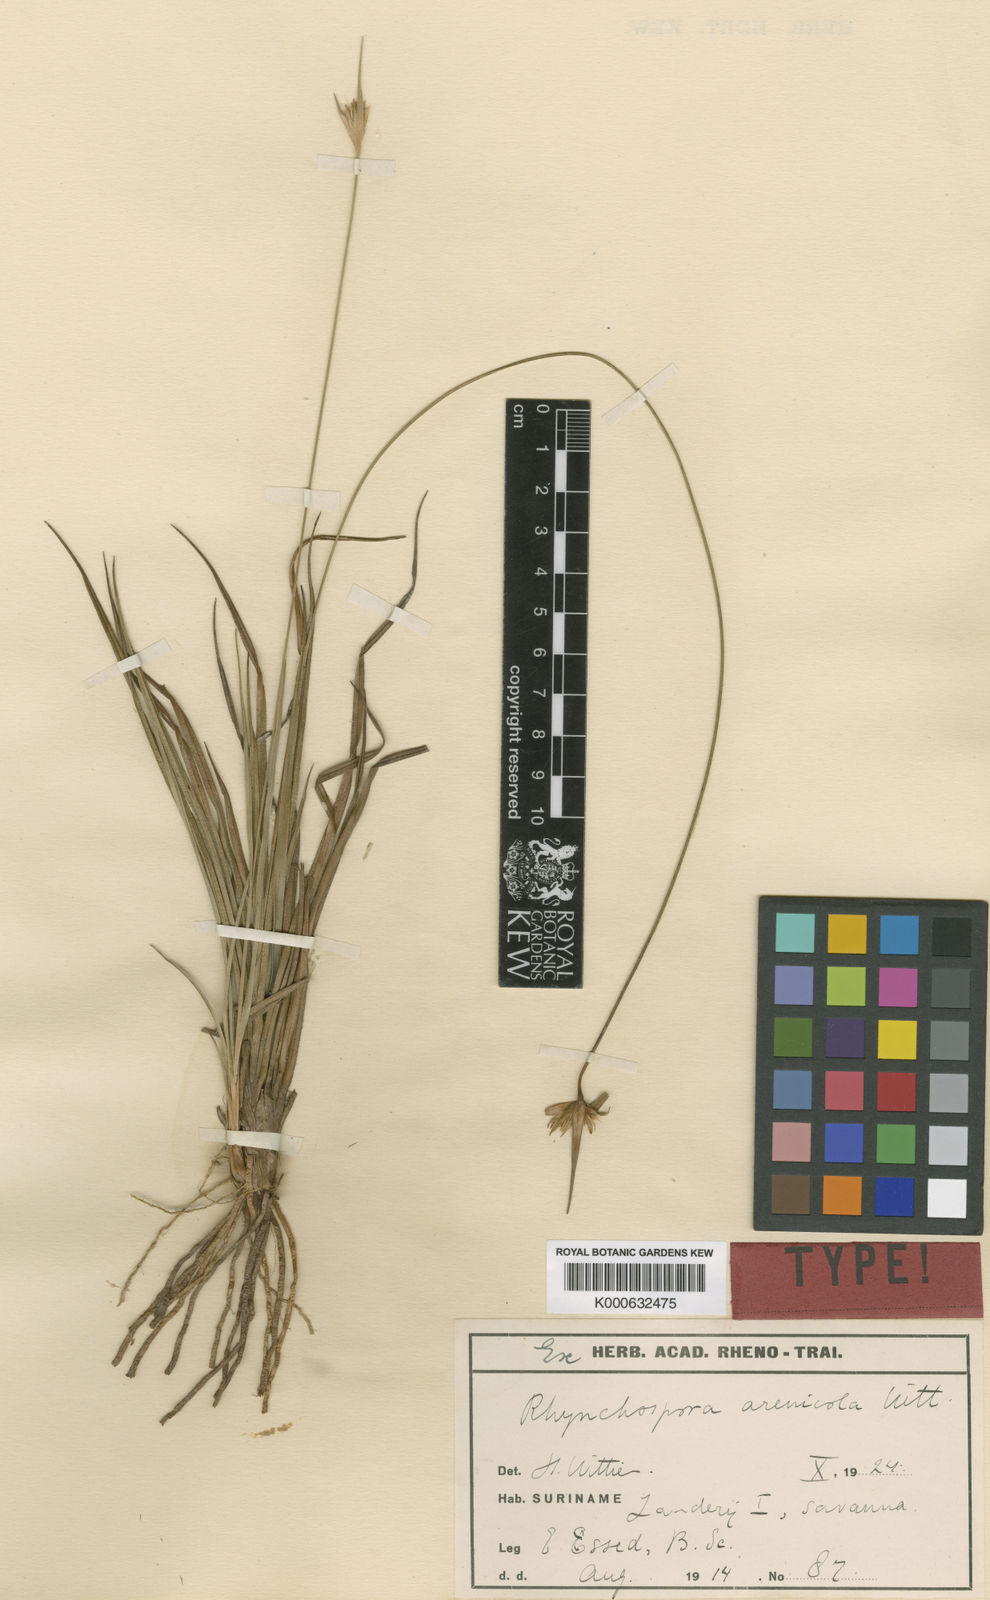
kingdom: Plantae
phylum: Tracheophyta
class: Liliopsida
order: Poales
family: Cyperaceae
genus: Rhynchospora
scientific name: Rhynchospora arenicola
